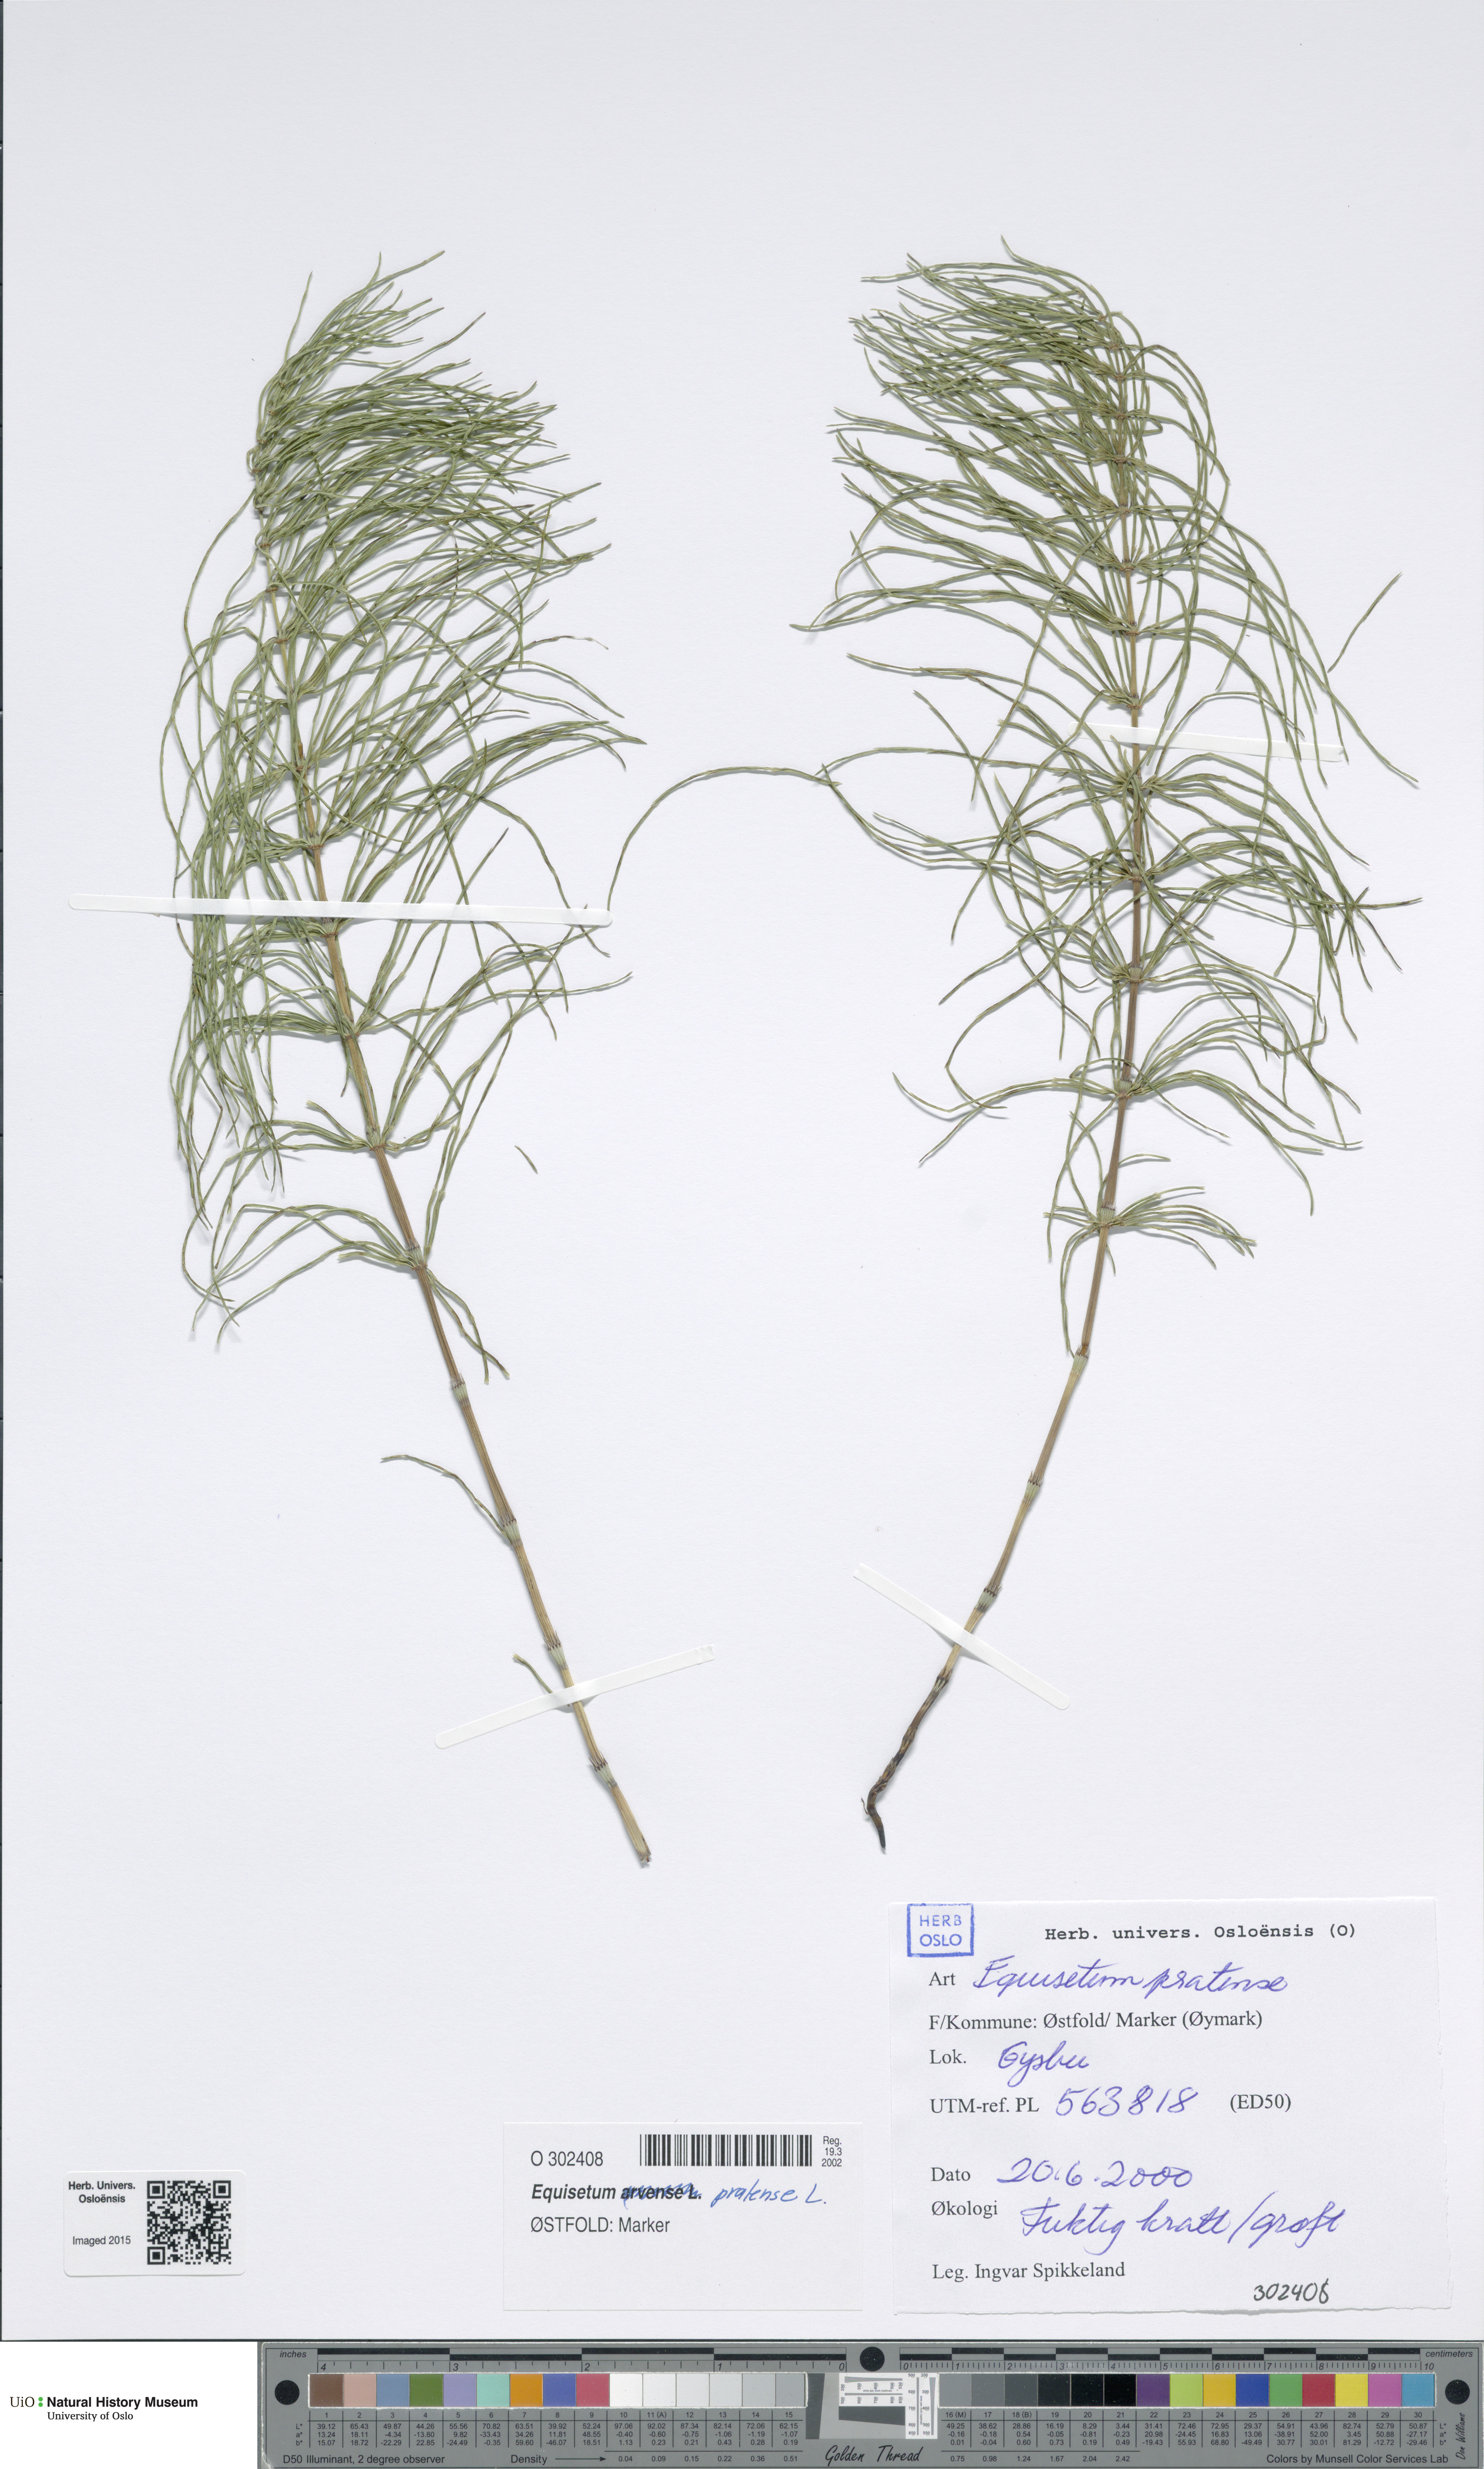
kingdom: Plantae
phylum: Tracheophyta
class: Polypodiopsida
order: Equisetales
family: Equisetaceae
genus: Equisetum
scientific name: Equisetum pratense
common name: Meadow horsetail
